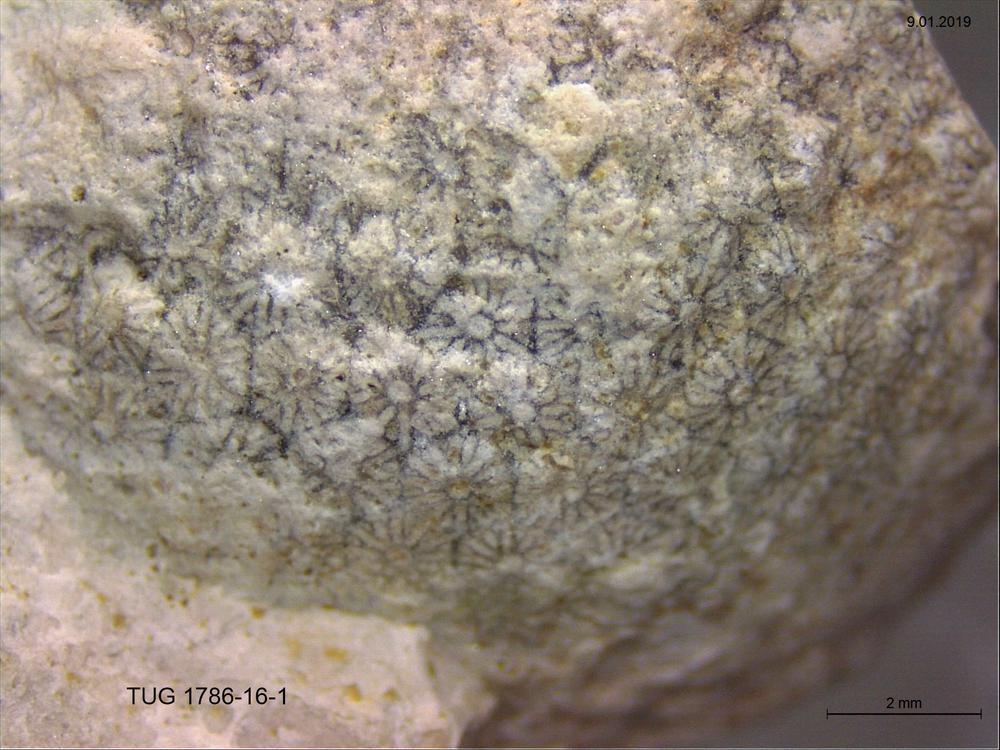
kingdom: Plantae
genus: Cyclorinus
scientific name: Cyclorinus Cyclocrinites spaskii
